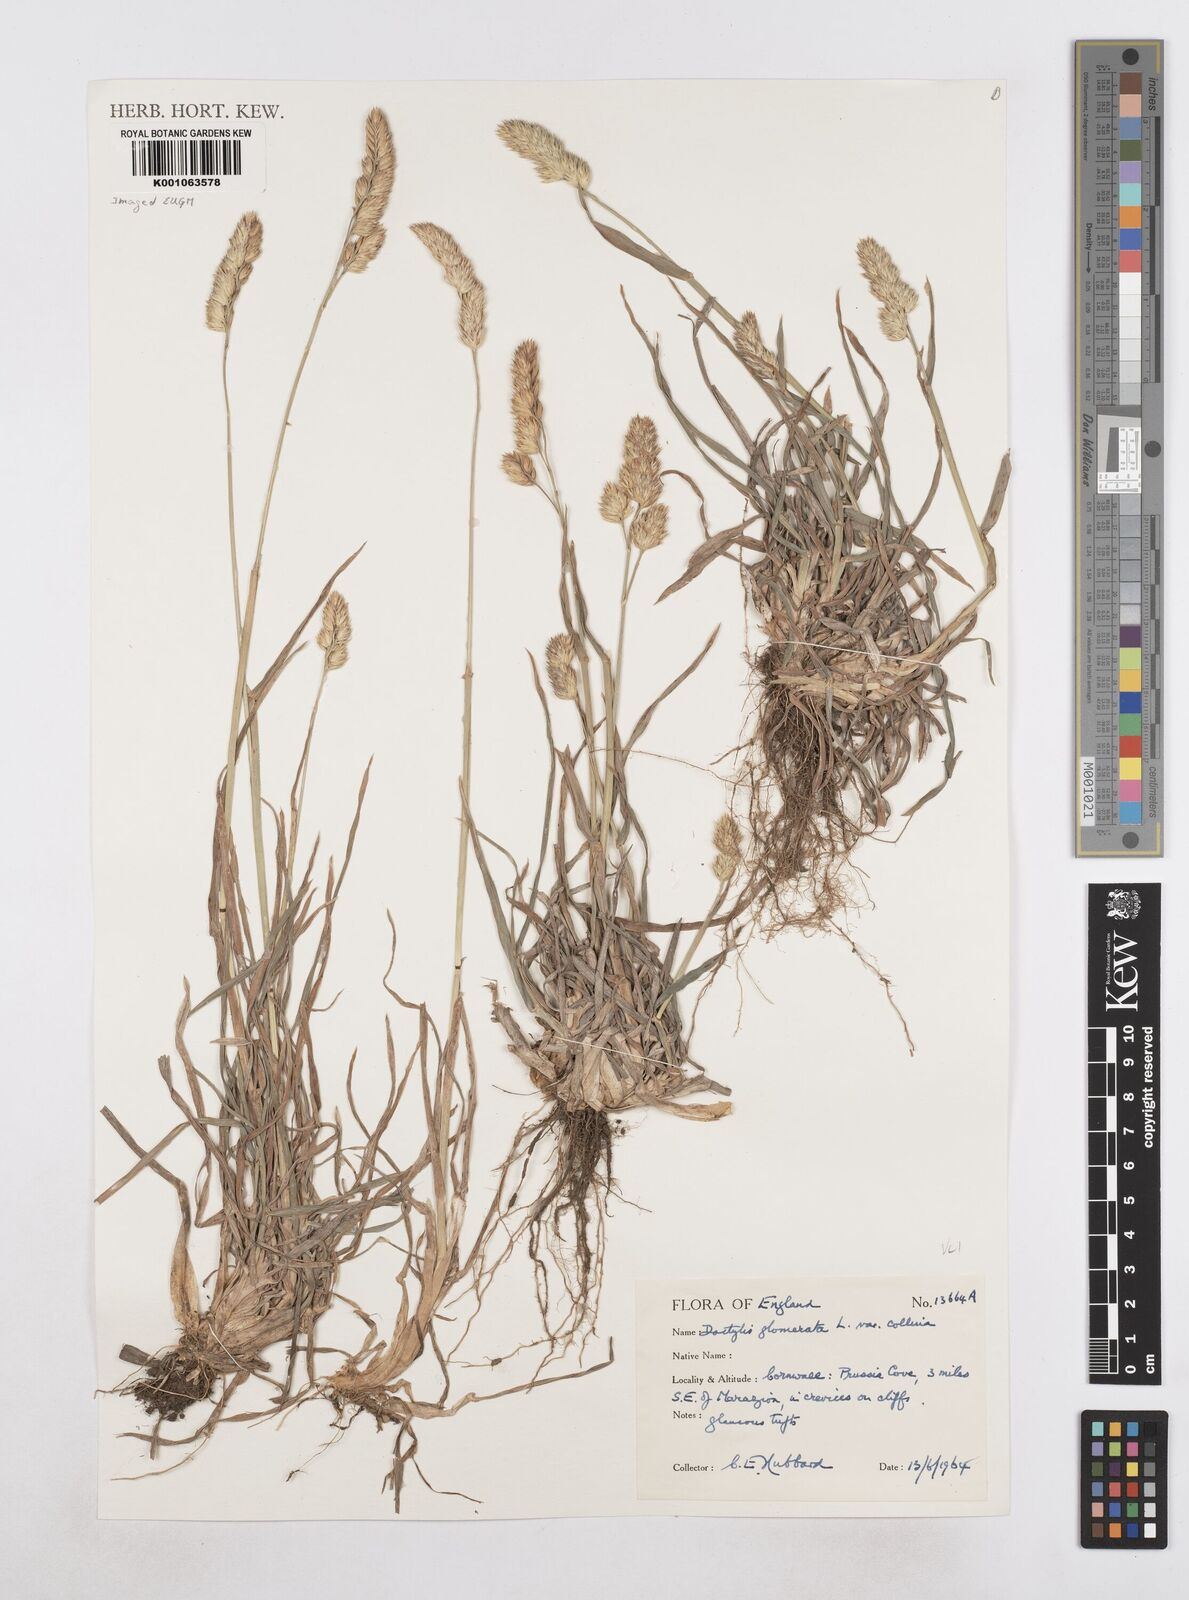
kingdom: Plantae
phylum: Tracheophyta
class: Liliopsida
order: Poales
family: Poaceae
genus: Dactylis
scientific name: Dactylis glomerata
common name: Orchardgrass
